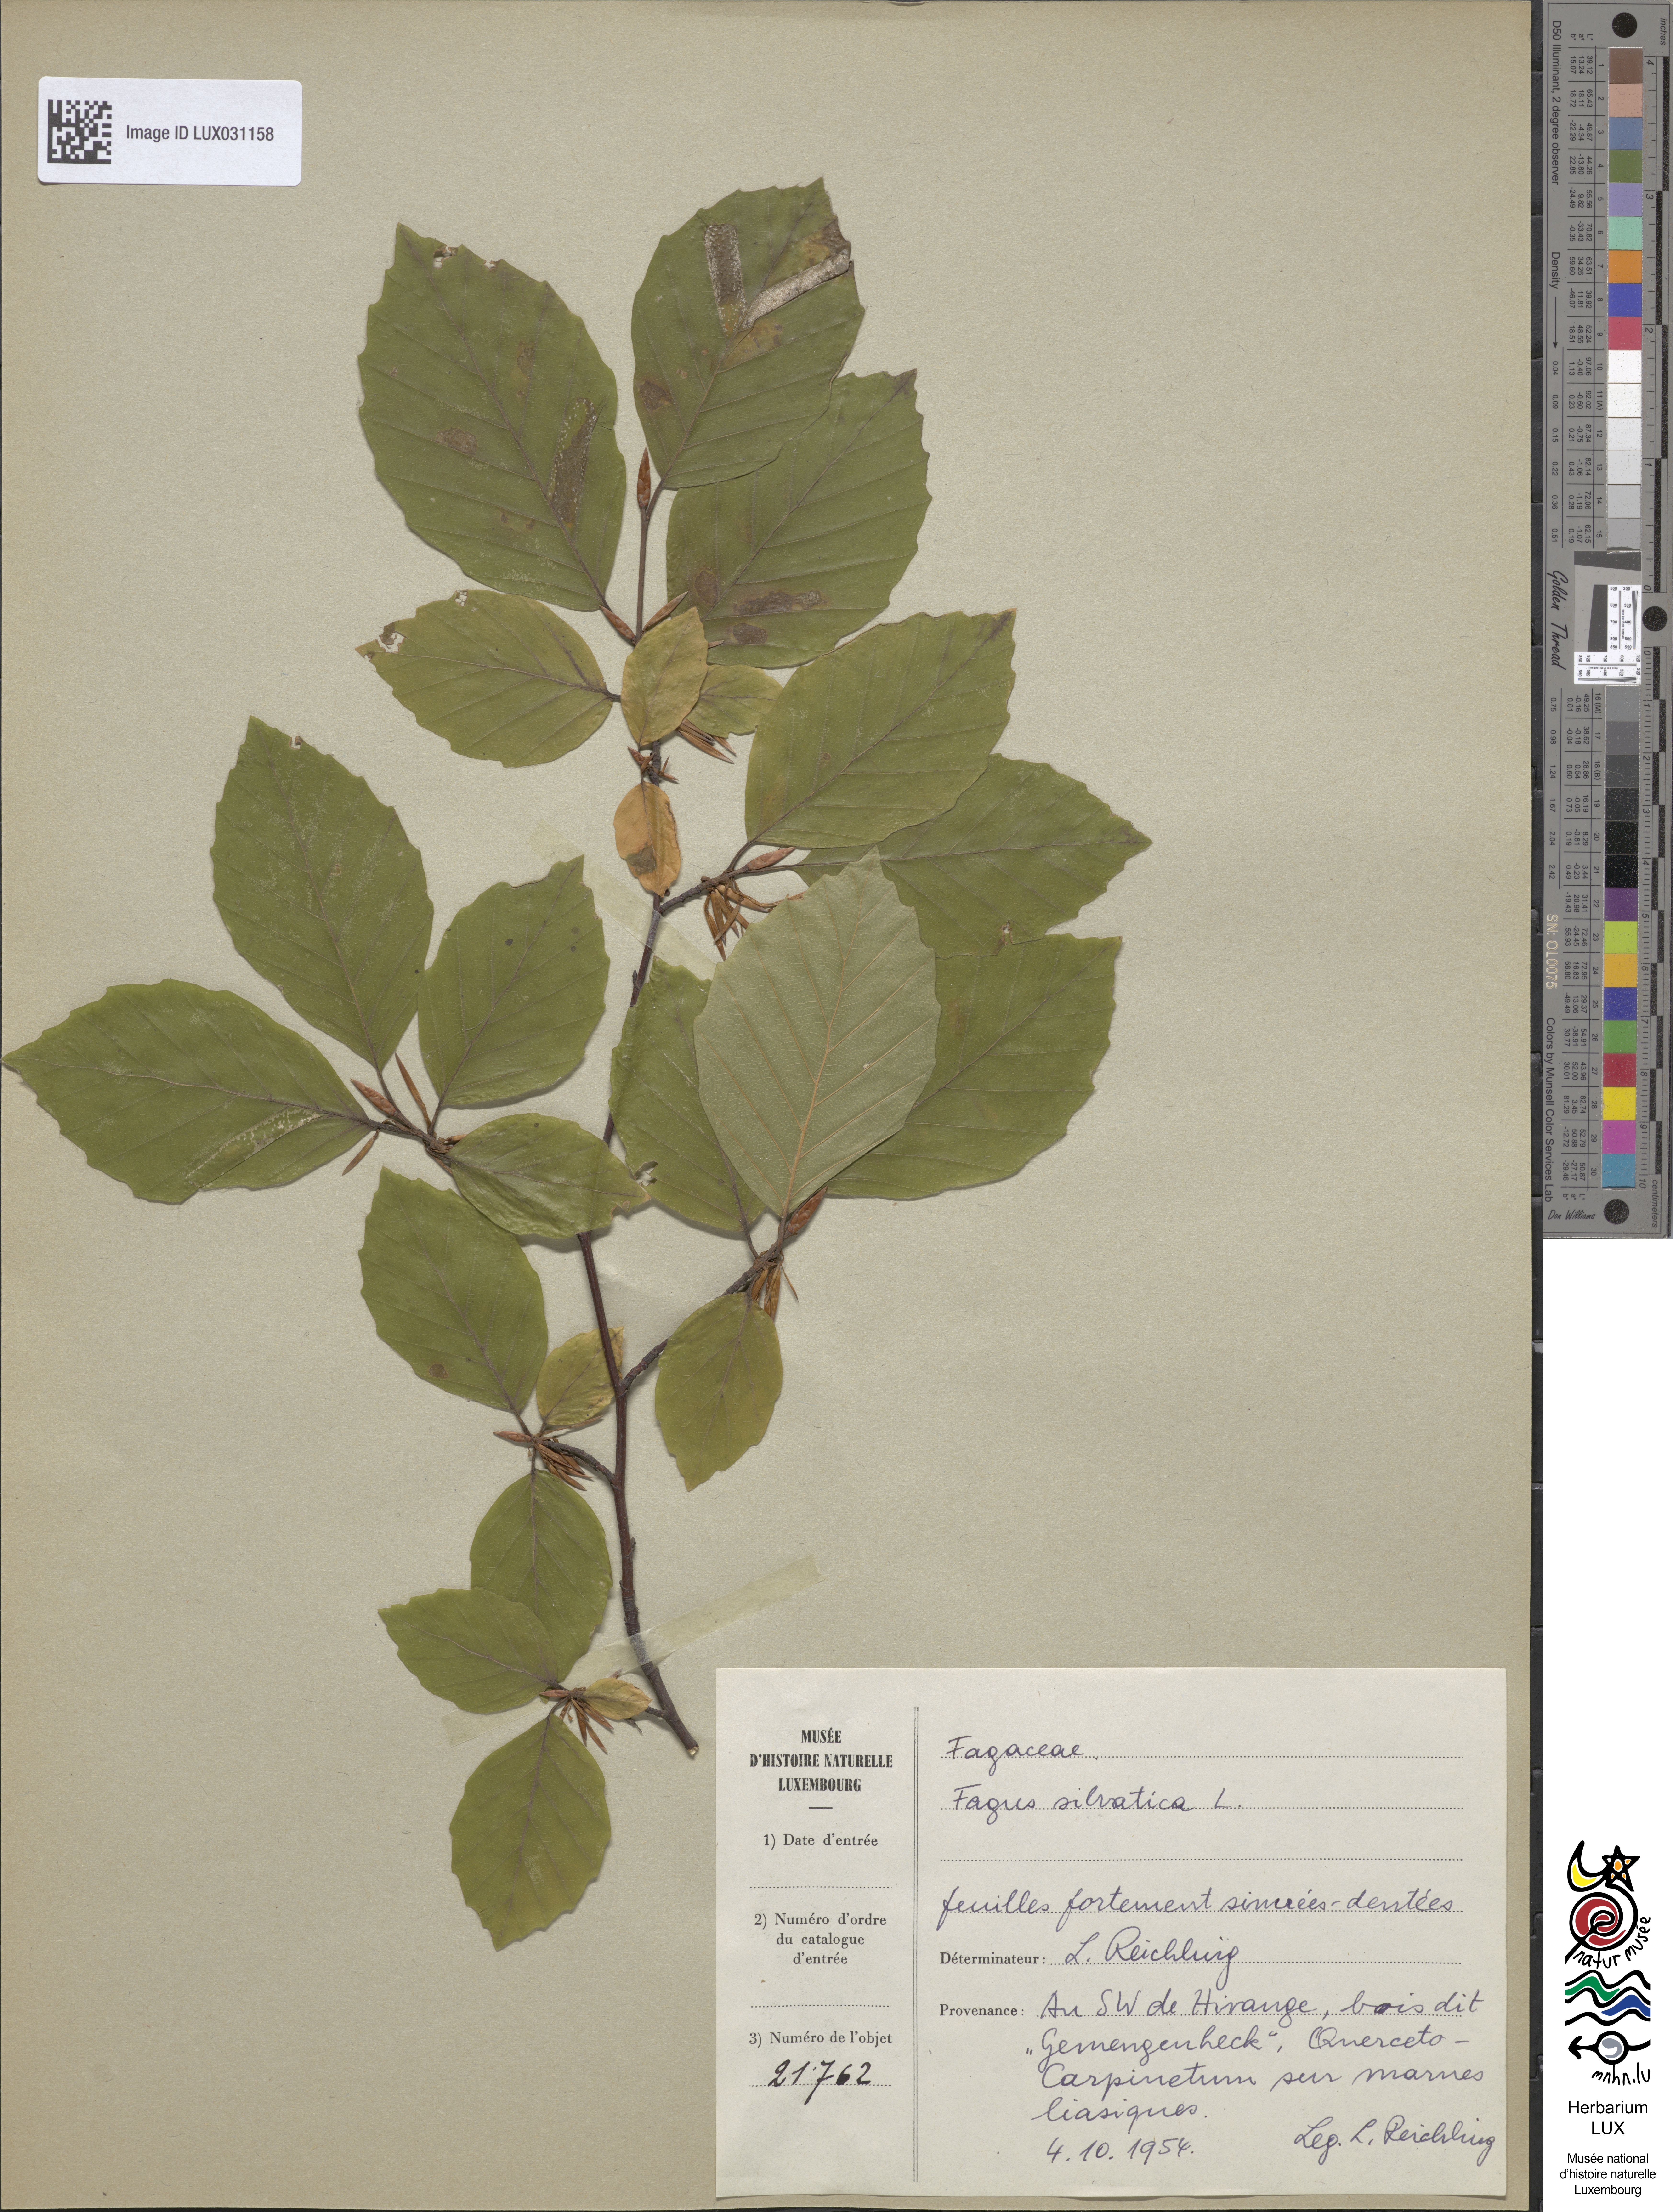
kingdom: Plantae
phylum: Tracheophyta
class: Magnoliopsida
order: Fagales
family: Fagaceae
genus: Fagus
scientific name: Fagus sylvatica
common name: Beech
